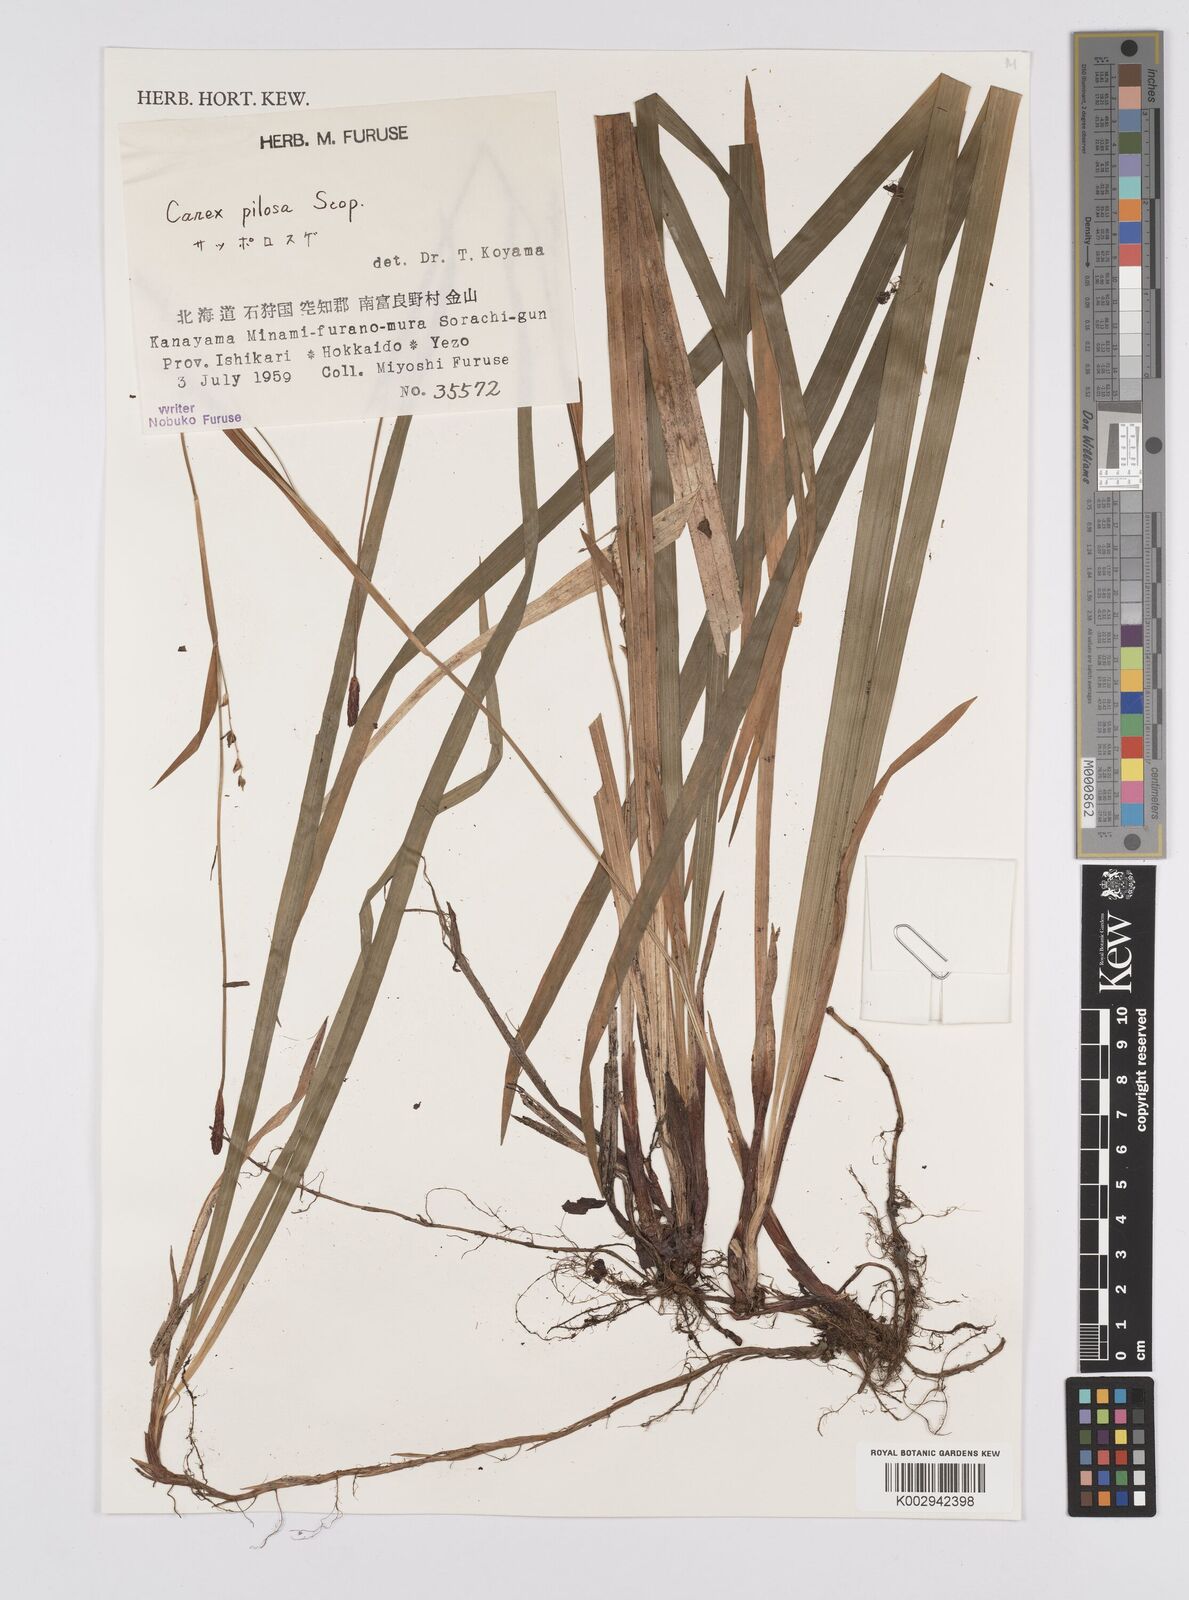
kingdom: Plantae
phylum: Tracheophyta
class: Liliopsida
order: Poales
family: Cyperaceae
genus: Carex
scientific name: Carex pilosa
